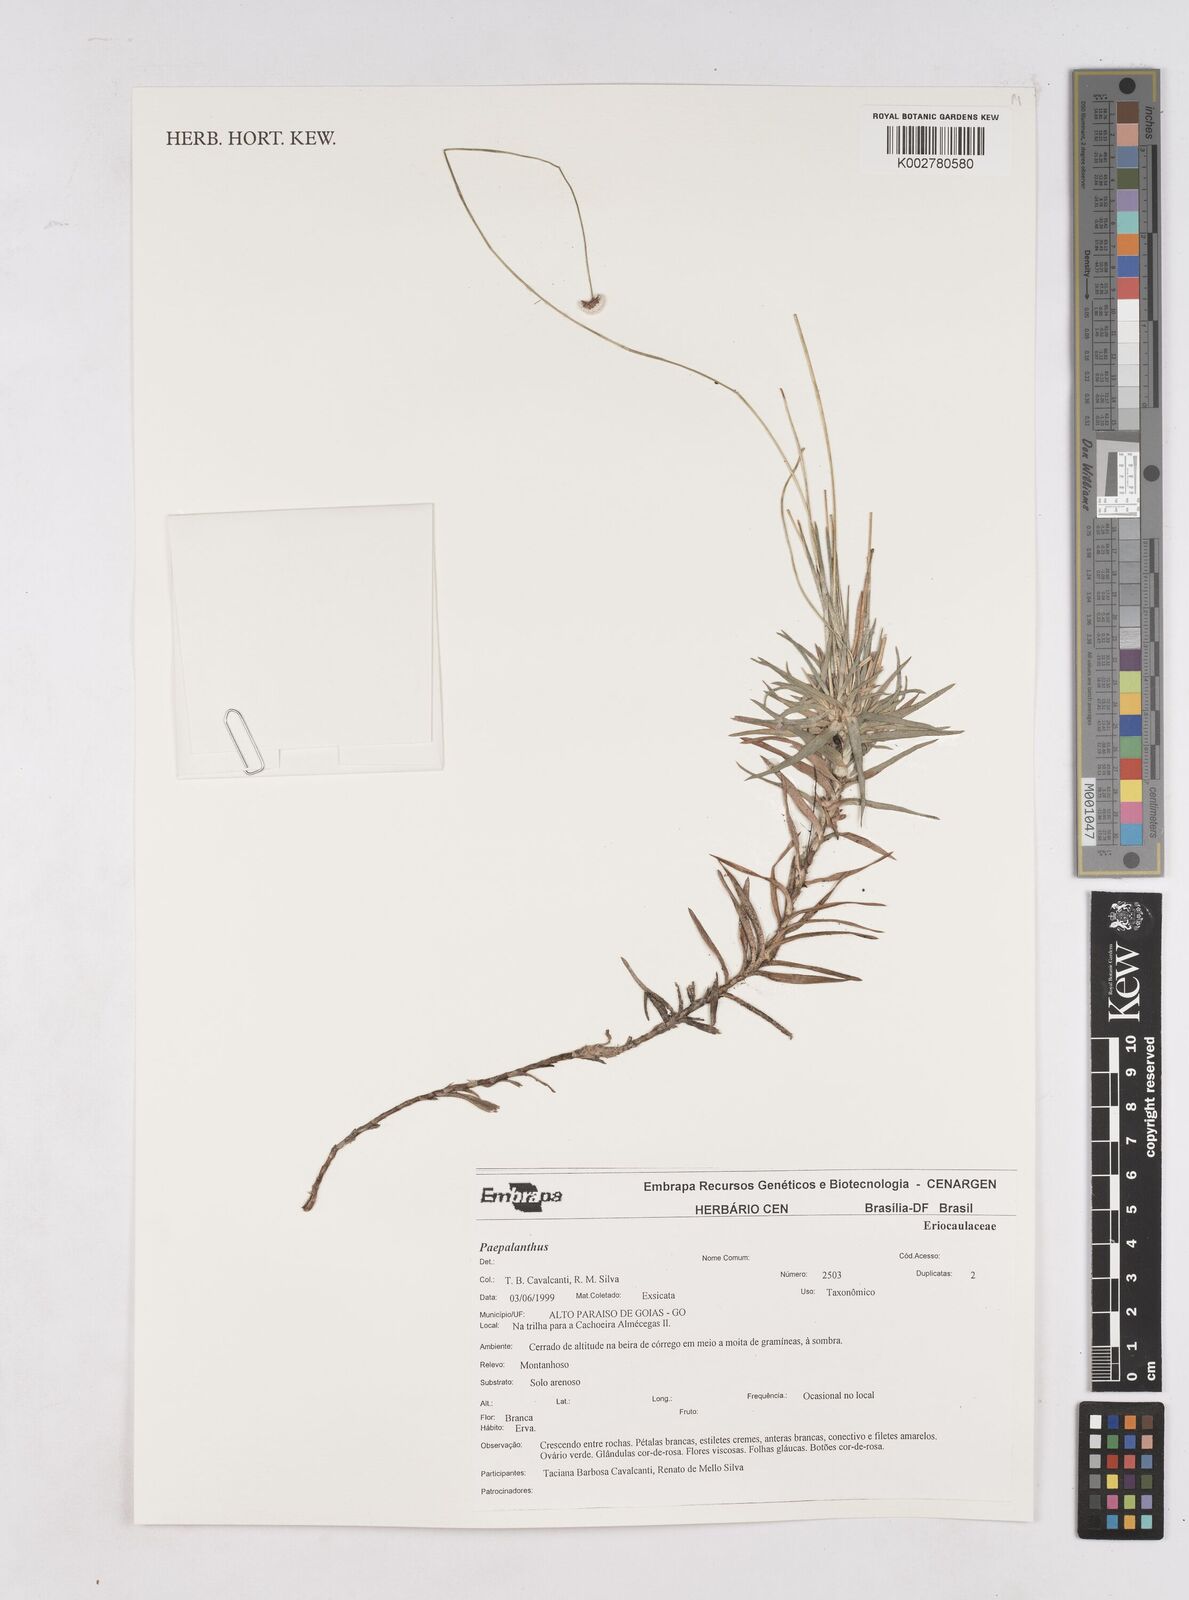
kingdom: Plantae
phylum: Tracheophyta
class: Liliopsida
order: Poales
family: Eriocaulaceae
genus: Paepalanthus
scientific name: Paepalanthus
